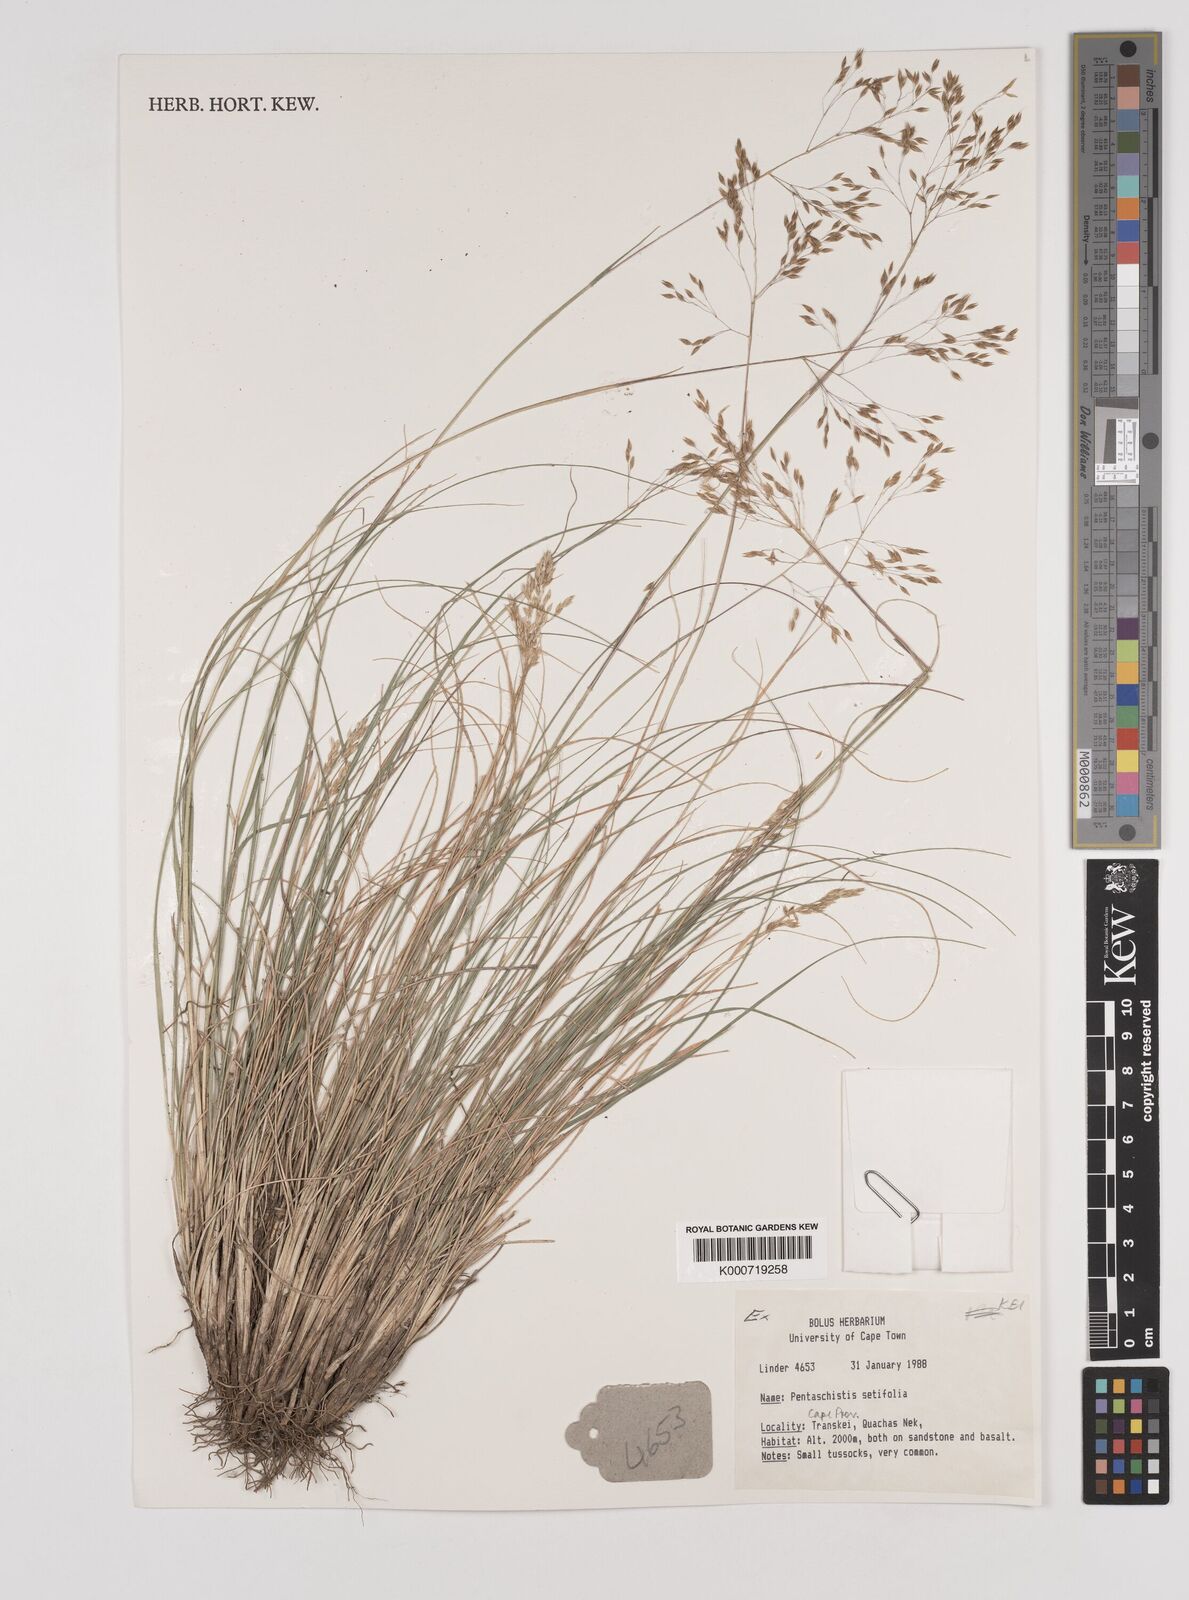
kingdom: Plantae
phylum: Tracheophyta
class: Liliopsida
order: Poales
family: Poaceae
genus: Pentameris
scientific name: Pentameris setifolia
